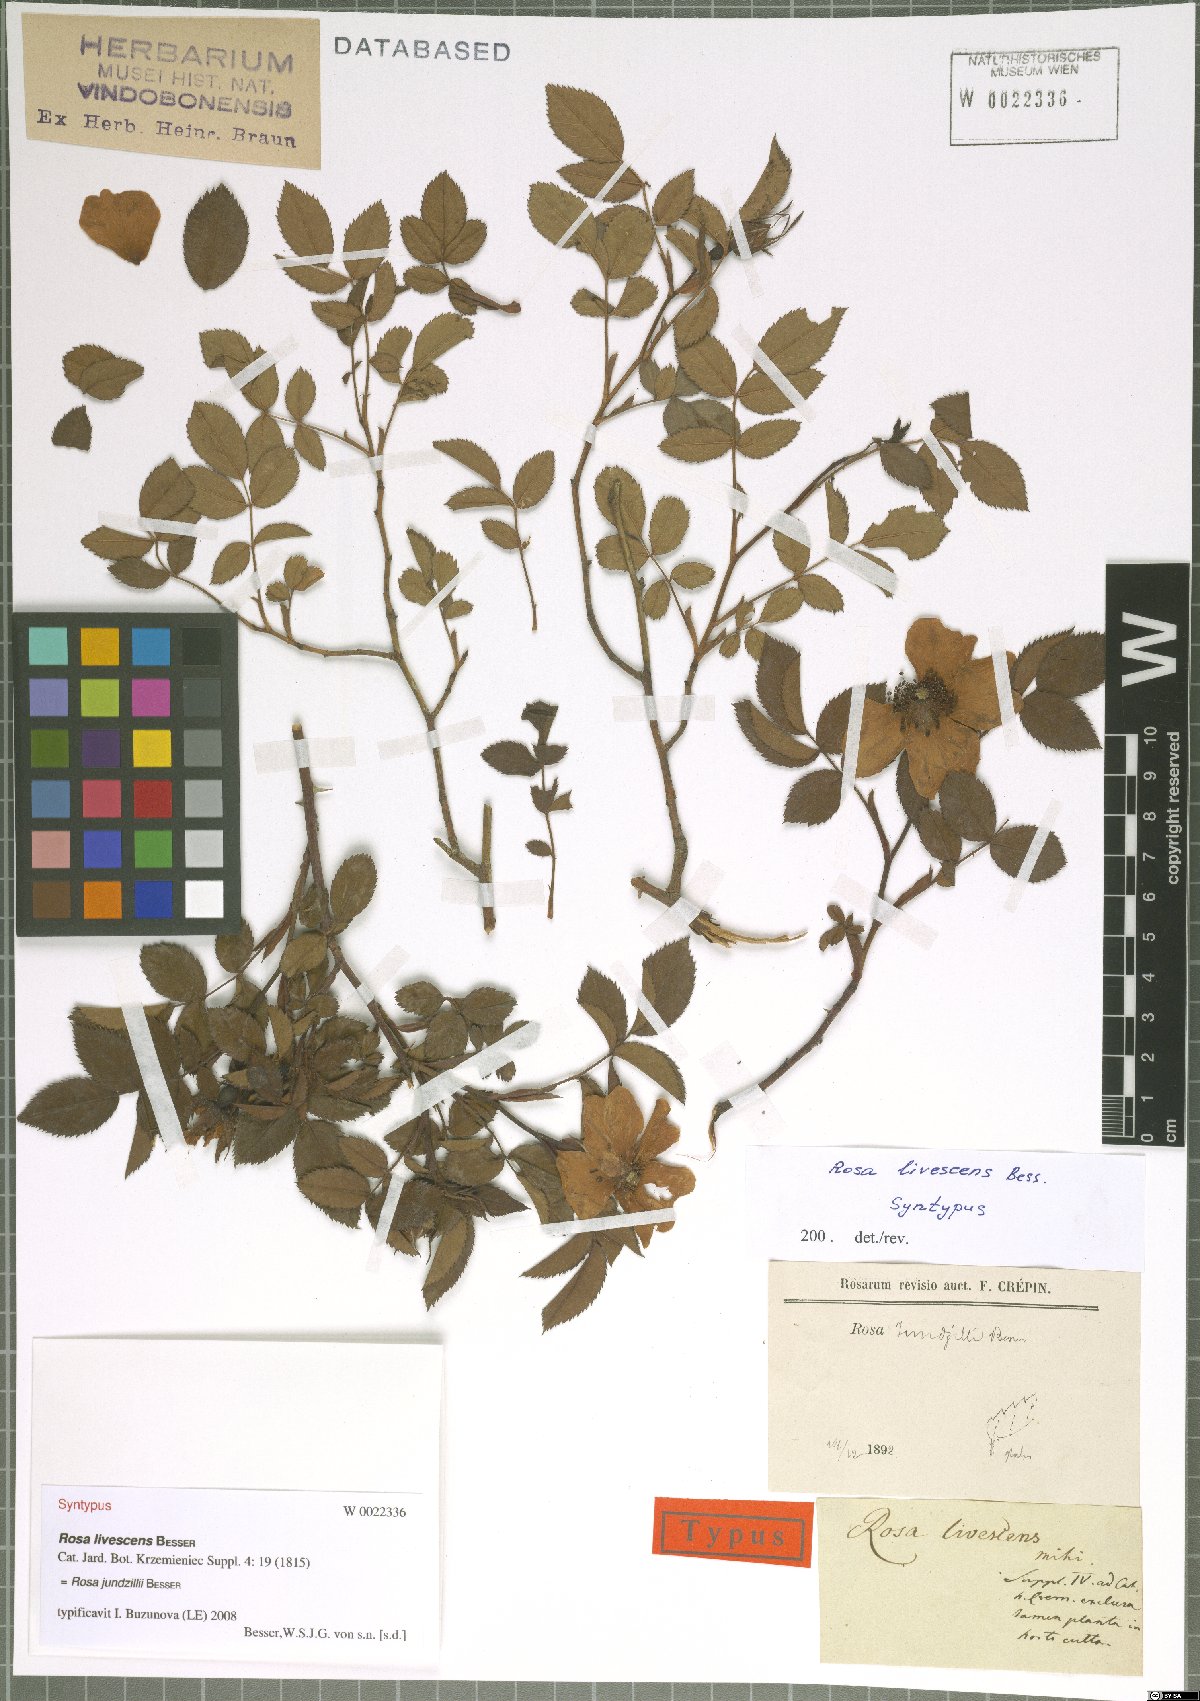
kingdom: Plantae
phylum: Tracheophyta
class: Magnoliopsida
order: Rosales
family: Rosaceae
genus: Rosa
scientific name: Rosa marginata
